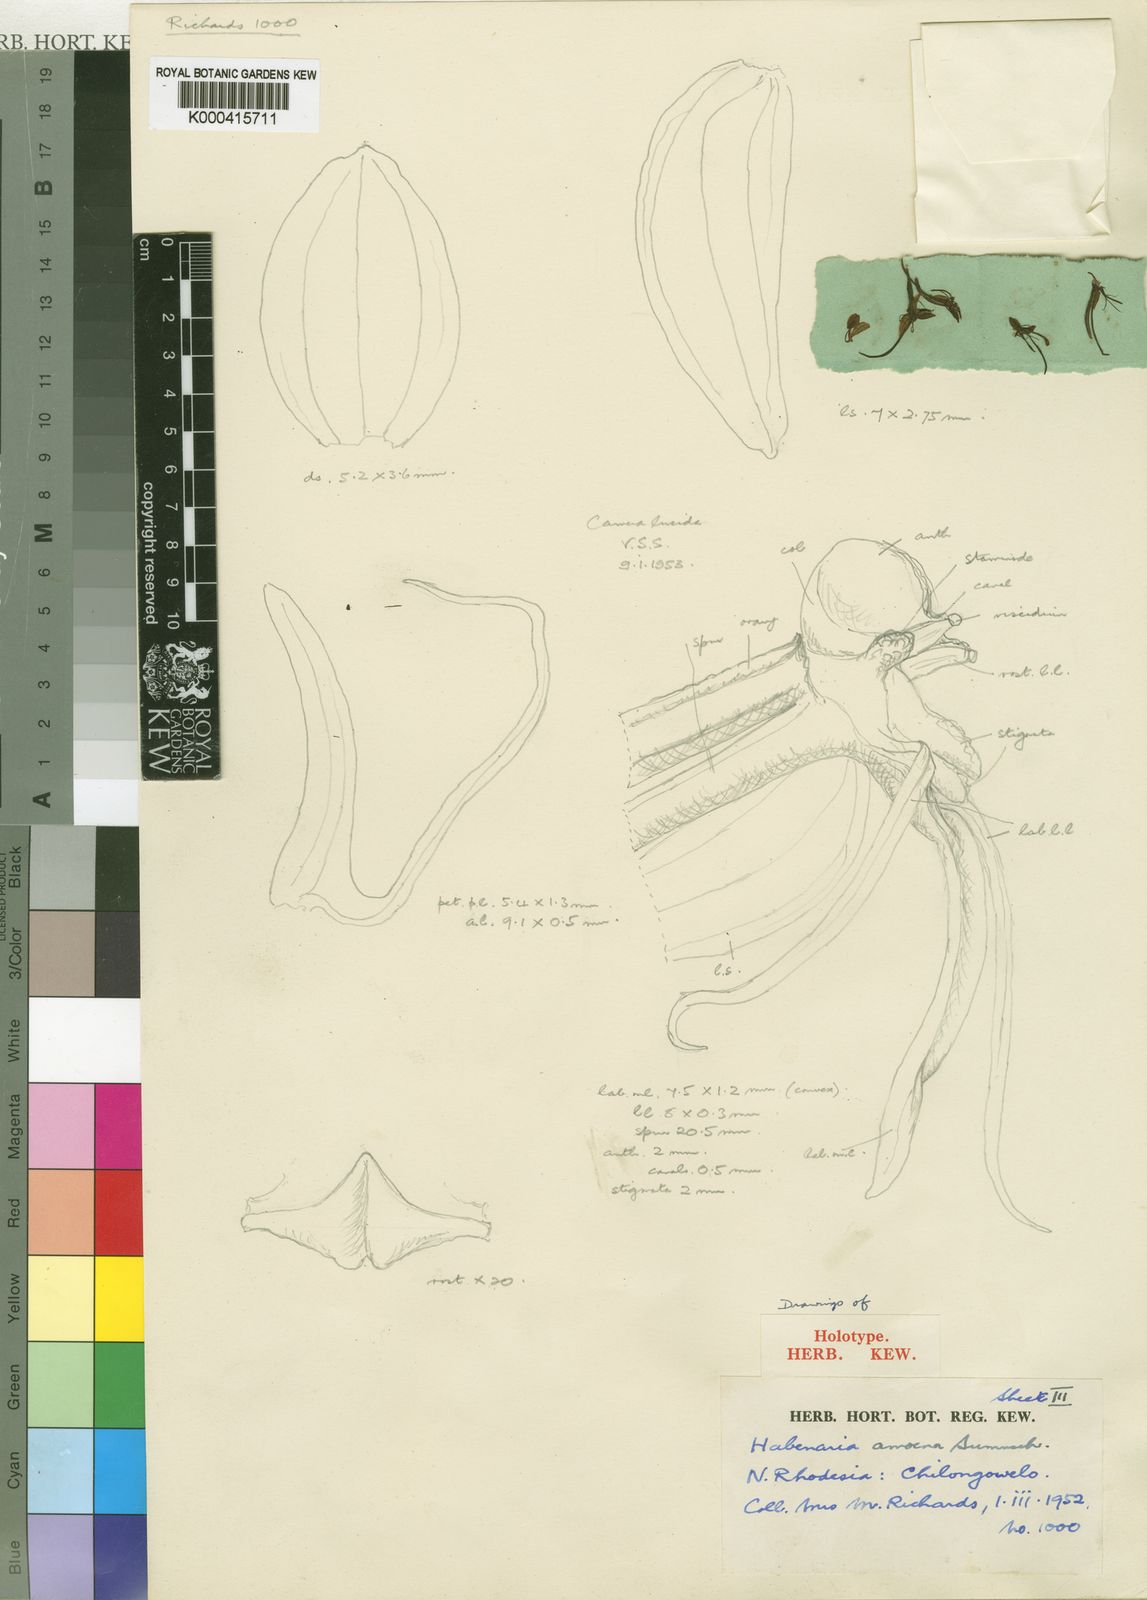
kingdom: Plantae
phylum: Tracheophyta
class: Liliopsida
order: Asparagales
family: Orchidaceae
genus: Habenaria
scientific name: Habenaria amoena
